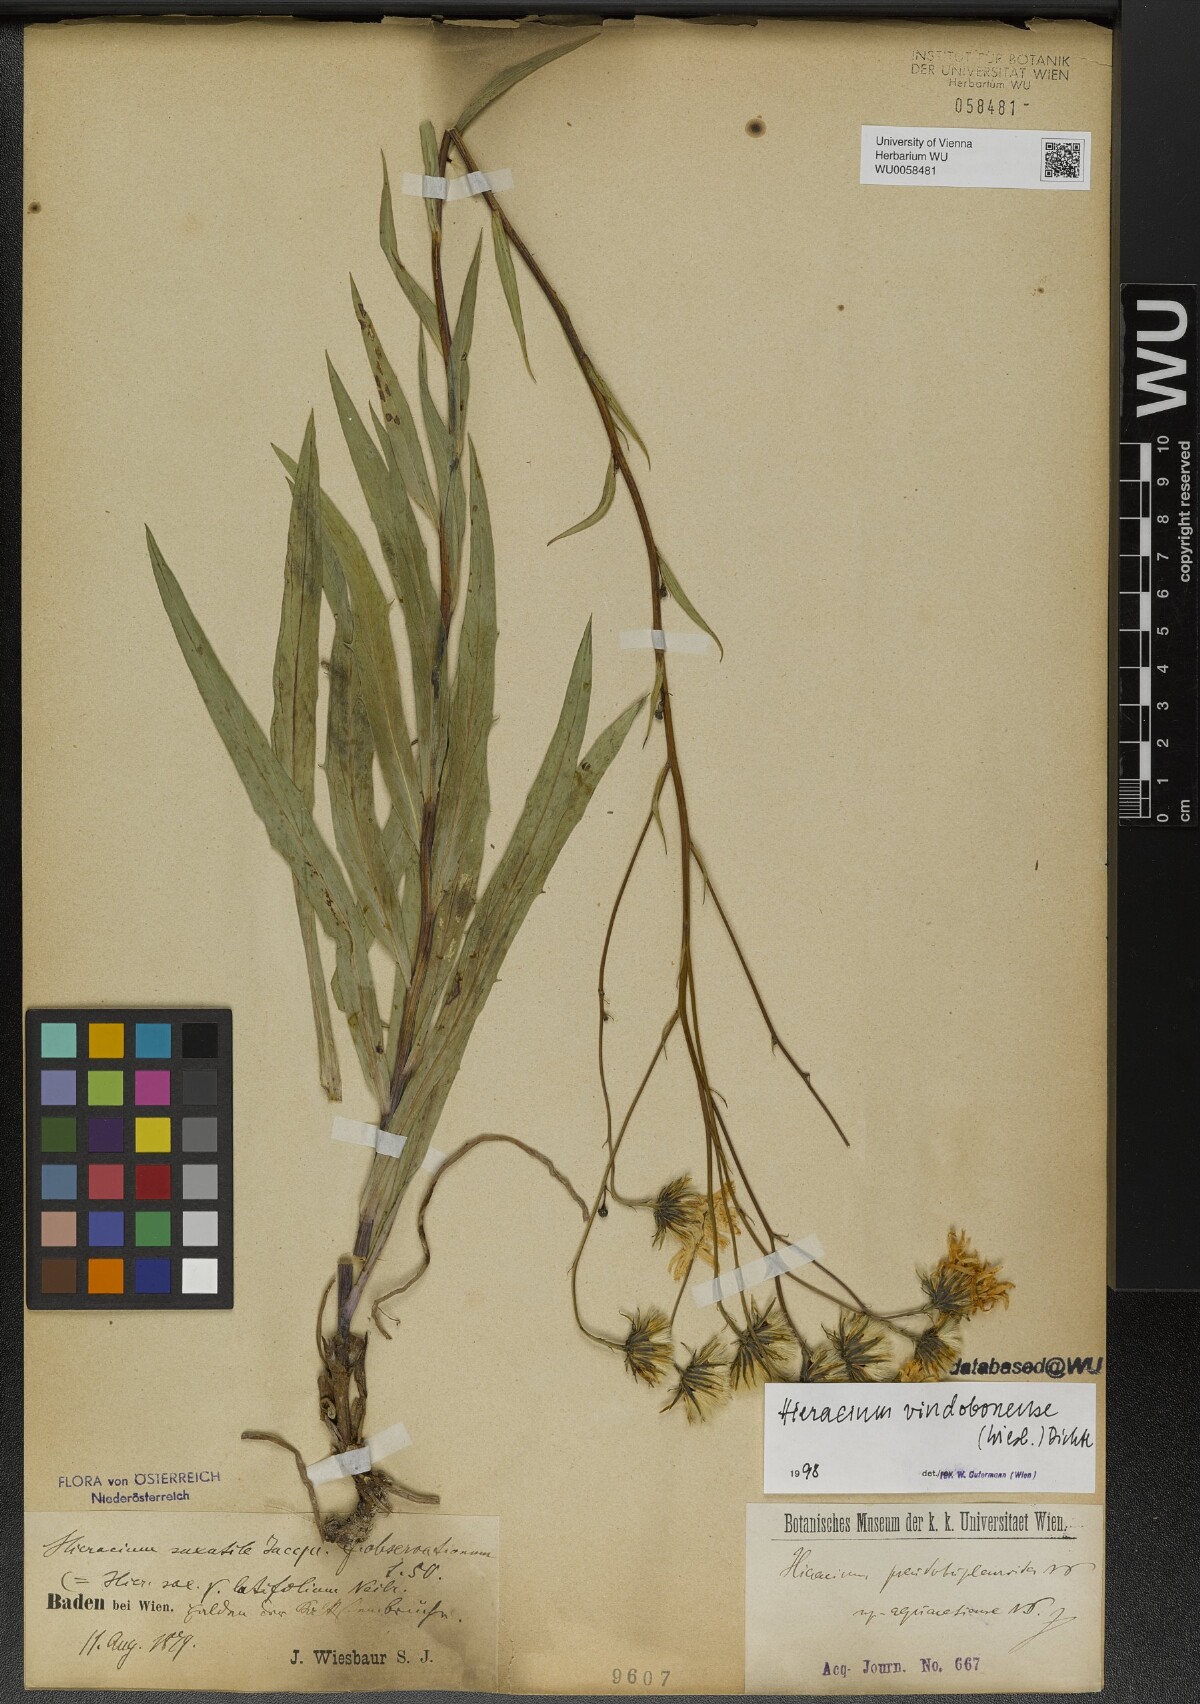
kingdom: Plantae
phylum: Tracheophyta
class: Magnoliopsida
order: Asterales
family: Asteraceae
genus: Hieracium
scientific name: Hieracium vindobonense
